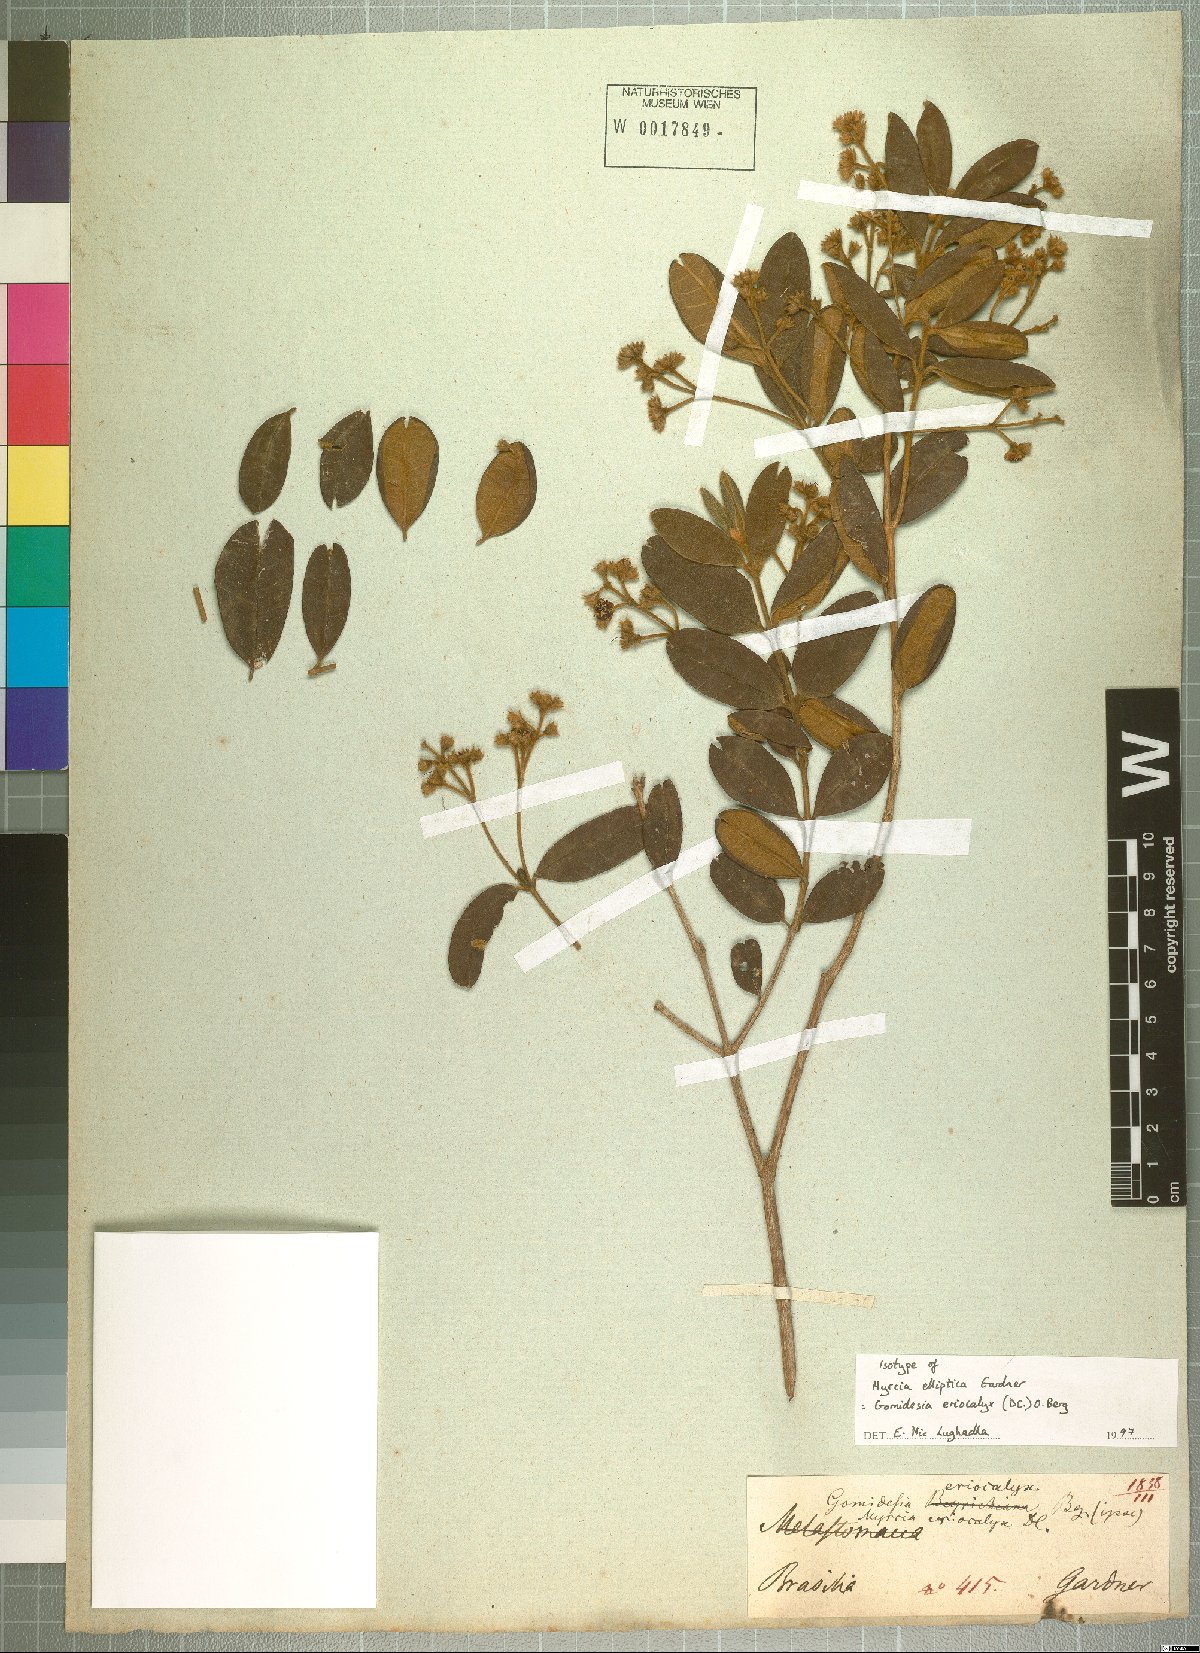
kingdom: Plantae
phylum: Tracheophyta
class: Magnoliopsida
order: Myrtales
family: Myrtaceae
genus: Myrcia
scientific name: Myrcia eriocalyx
